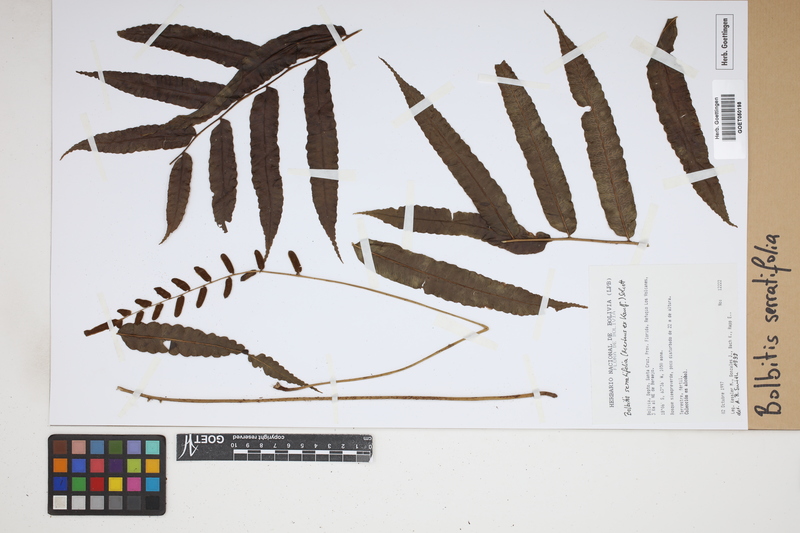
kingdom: Plantae
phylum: Tracheophyta
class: Polypodiopsida
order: Polypodiales
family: Dryopteridaceae
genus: Bolbitis
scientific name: Bolbitis serratifolia
